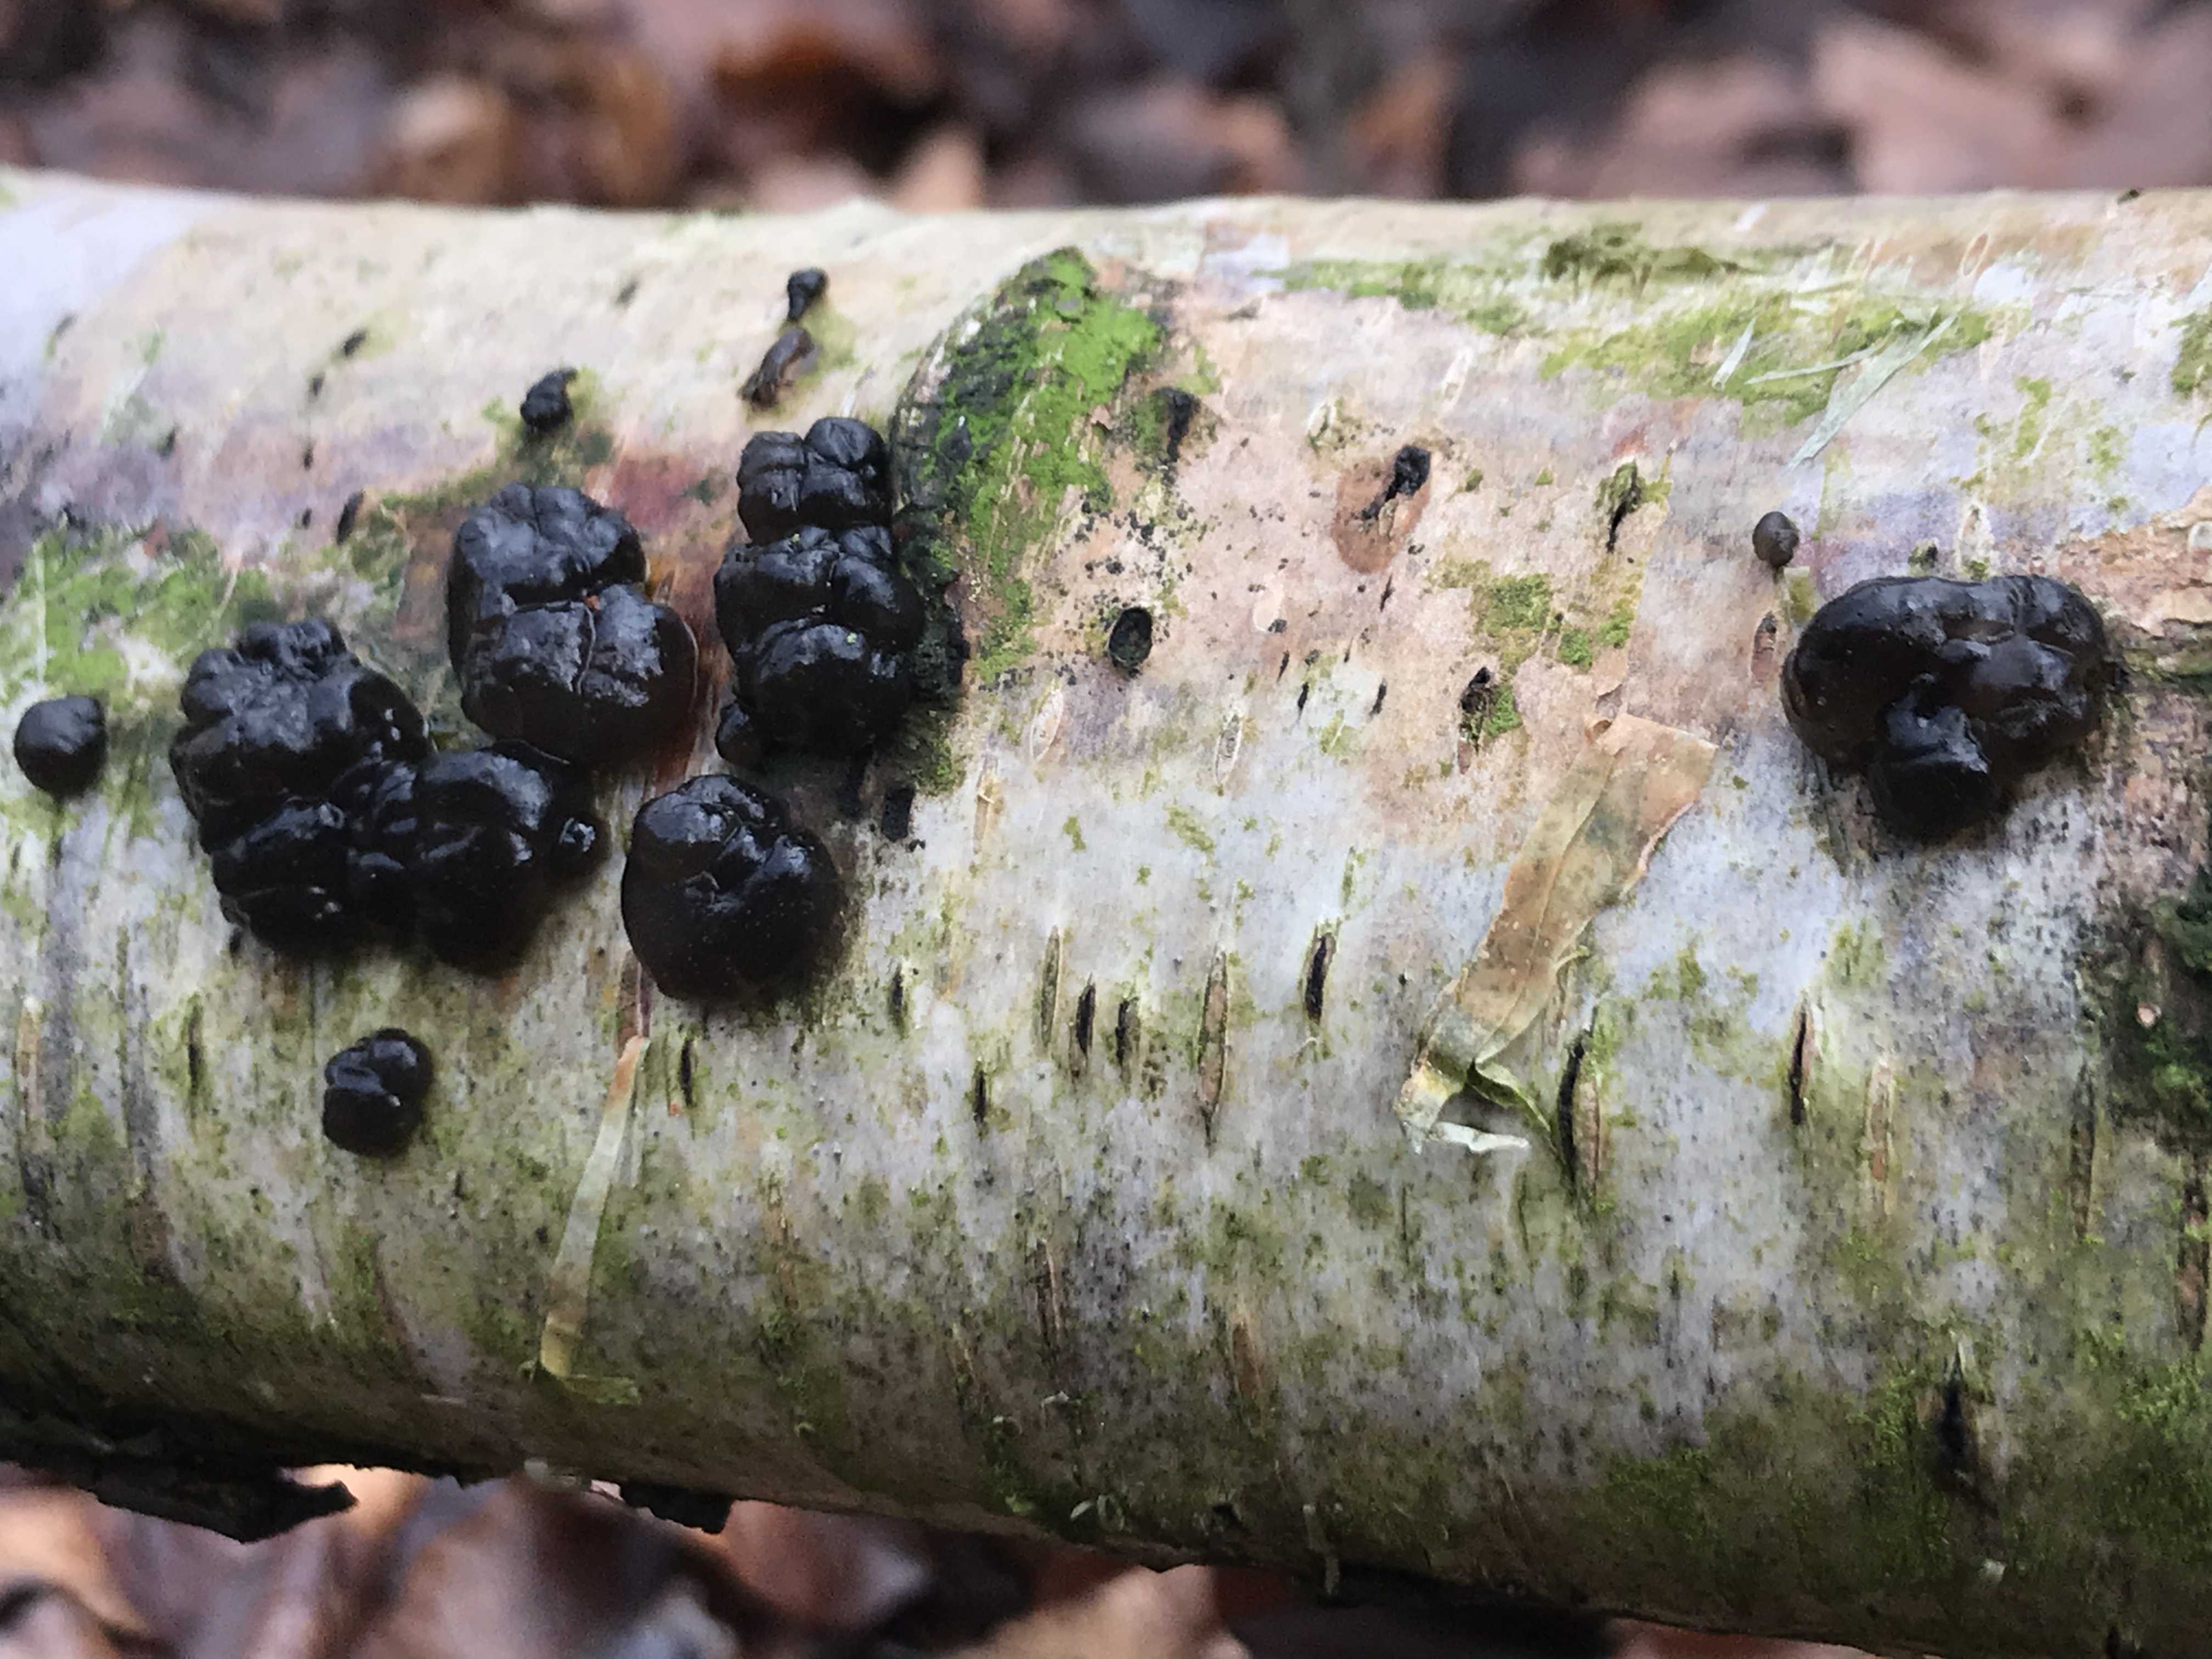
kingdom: Fungi
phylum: Basidiomycota
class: Agaricomycetes
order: Auriculariales
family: Auriculariaceae
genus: Exidia
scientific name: Exidia nigricans
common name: almindelig bævretop
